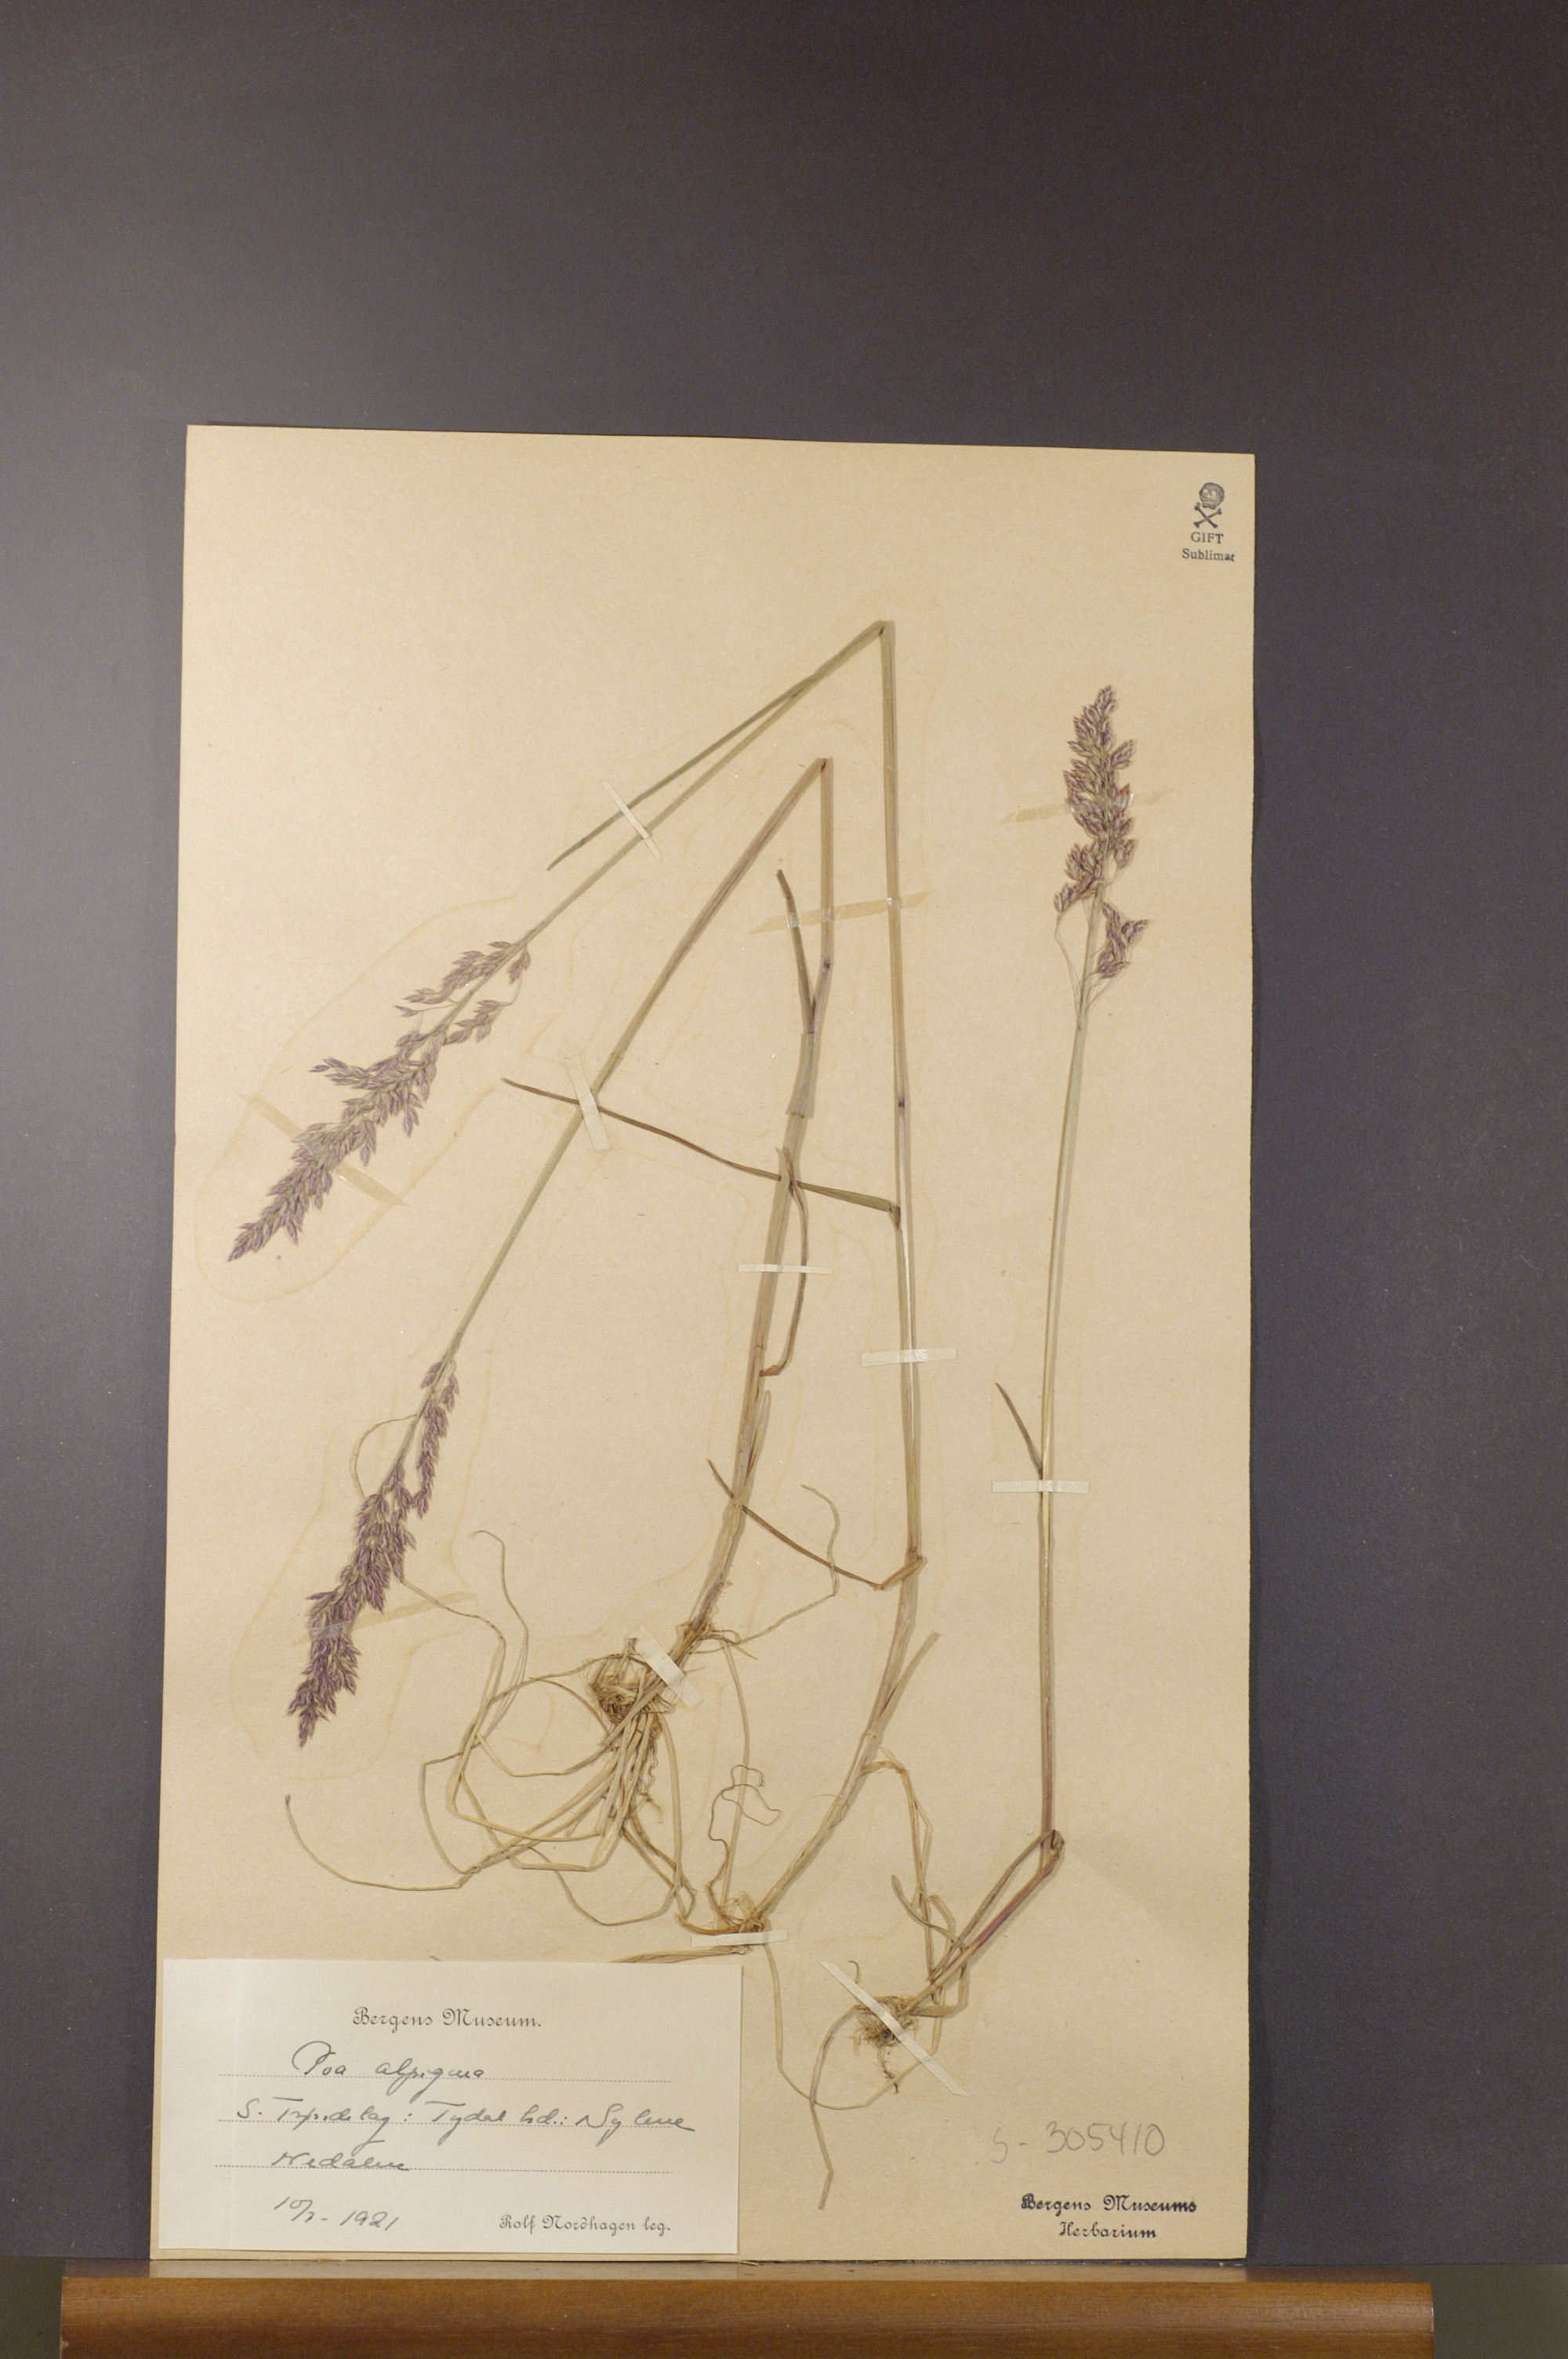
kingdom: Plantae
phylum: Tracheophyta
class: Liliopsida
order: Poales
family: Poaceae
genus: Poa
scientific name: Poa alpigena
